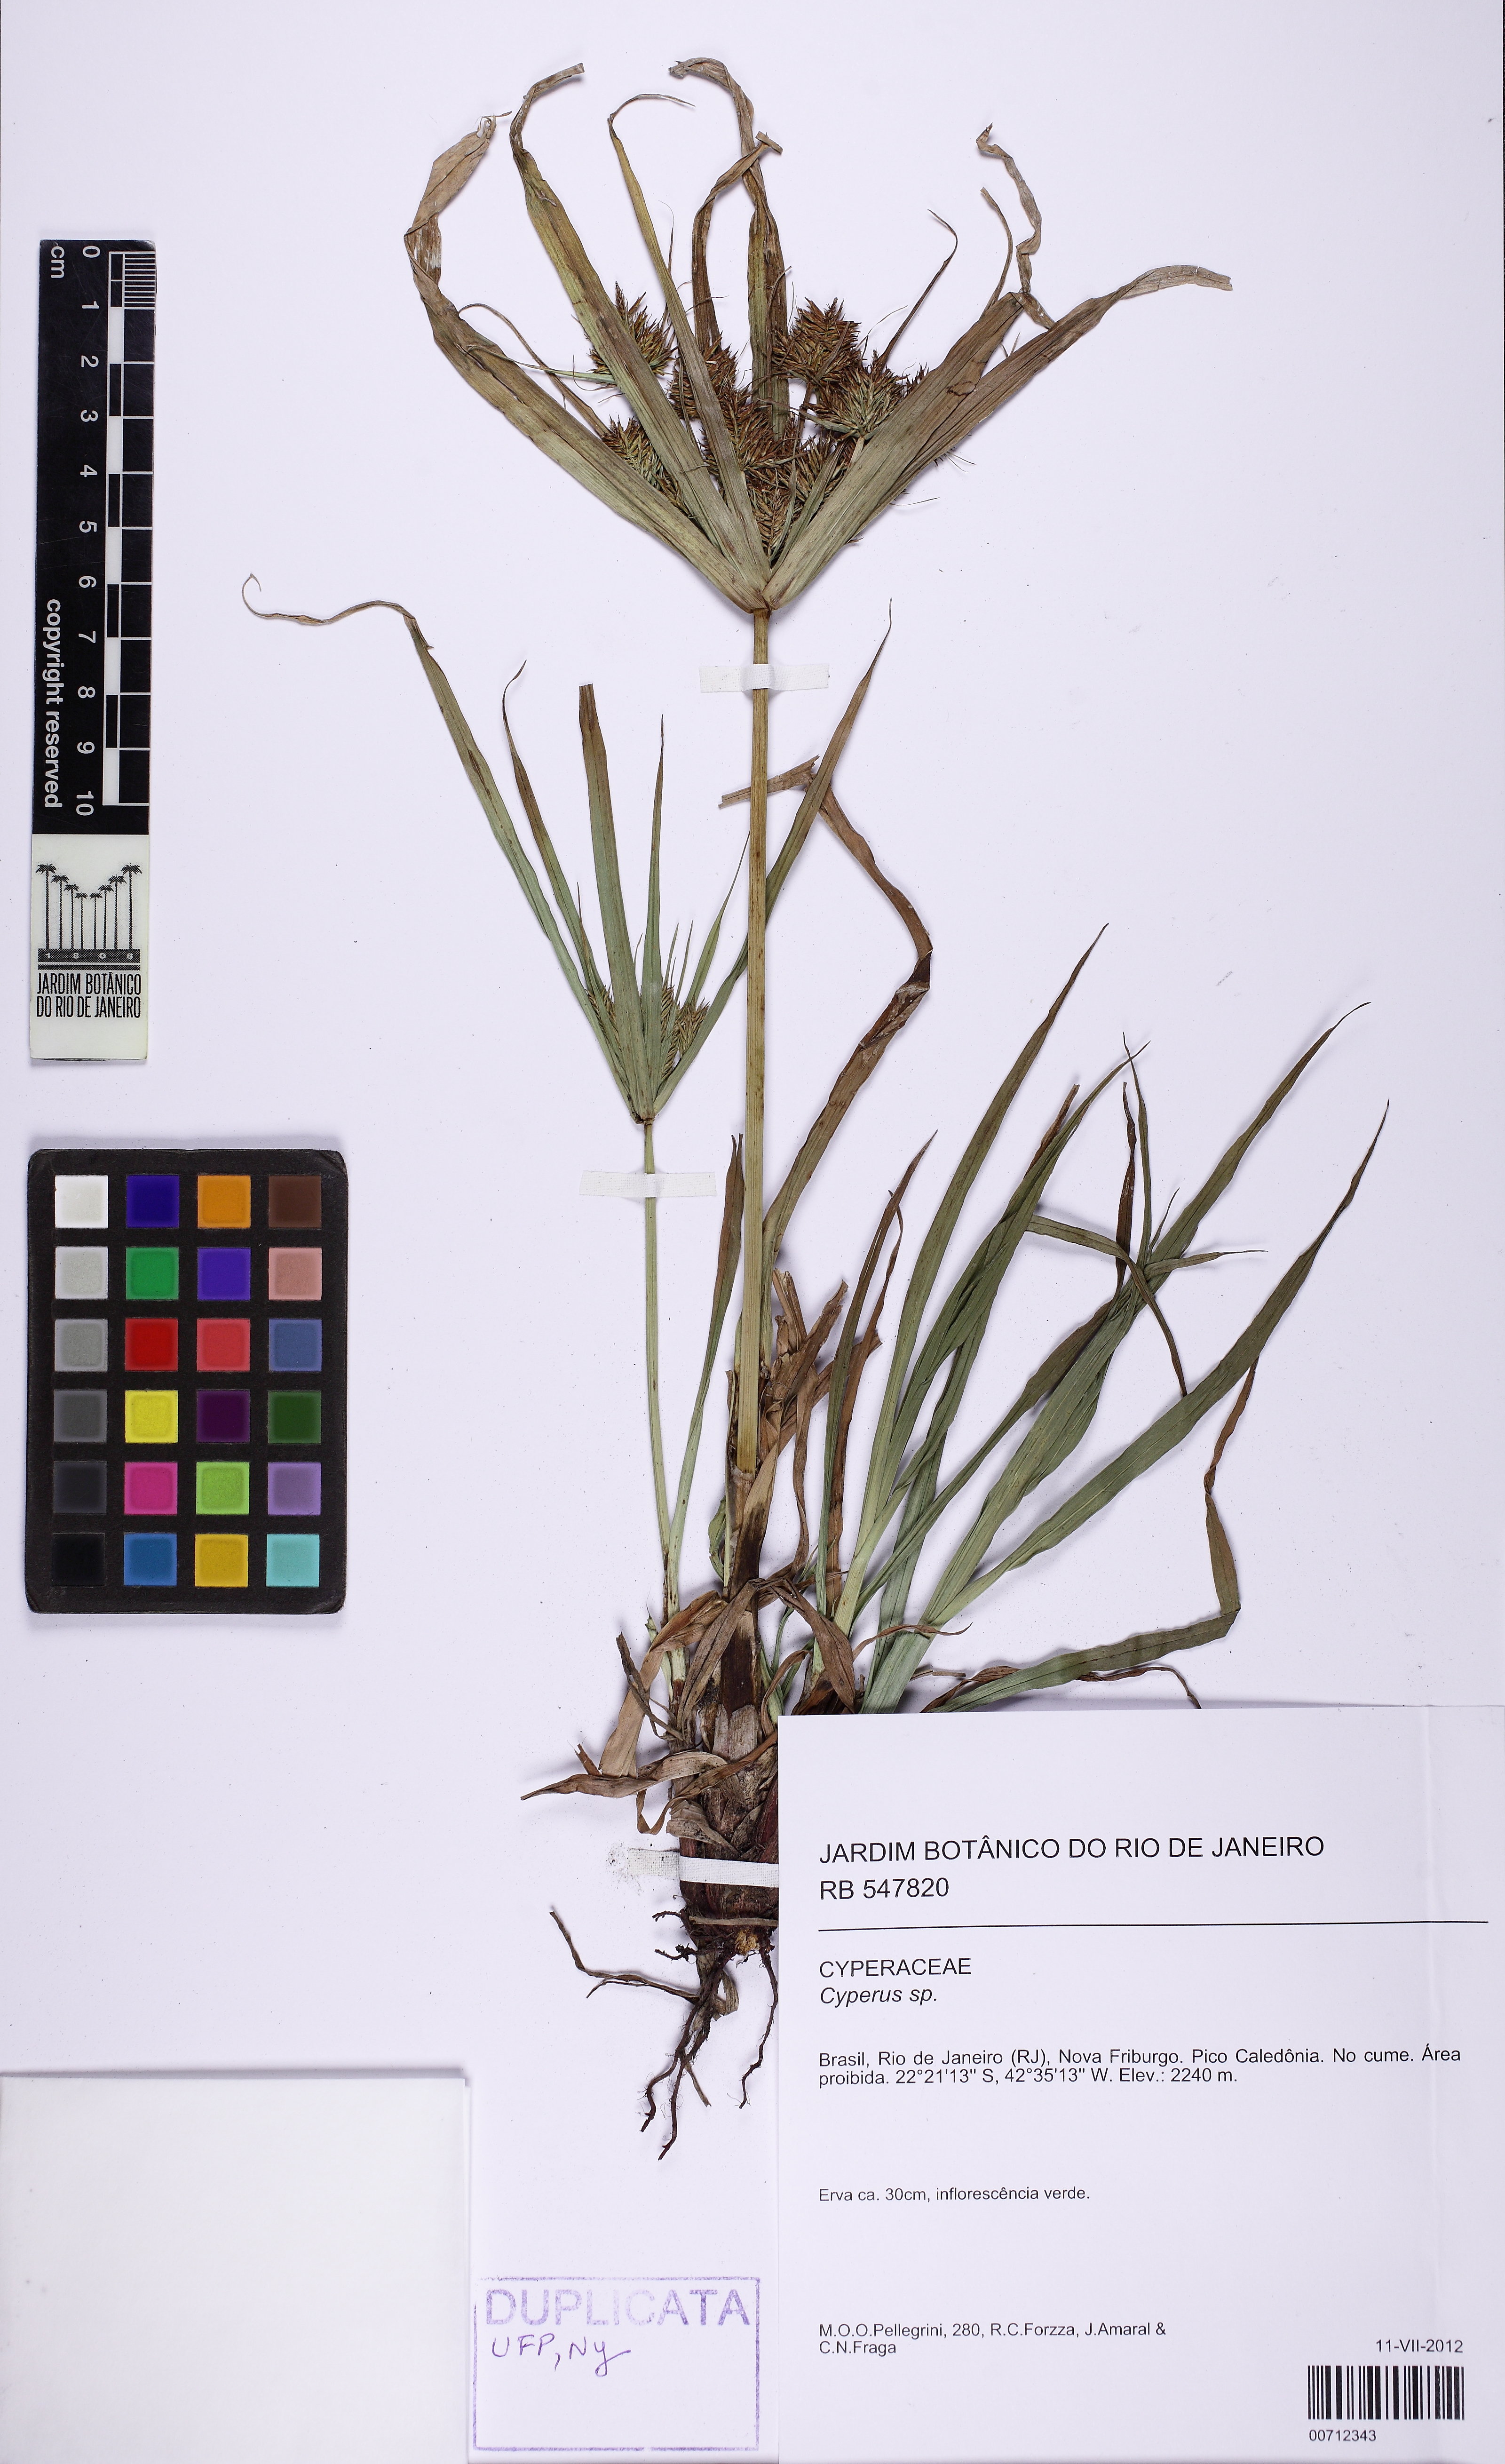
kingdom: Plantae
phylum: Tracheophyta
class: Liliopsida
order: Poales
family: Cyperaceae
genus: Cyperus
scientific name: Cyperus
